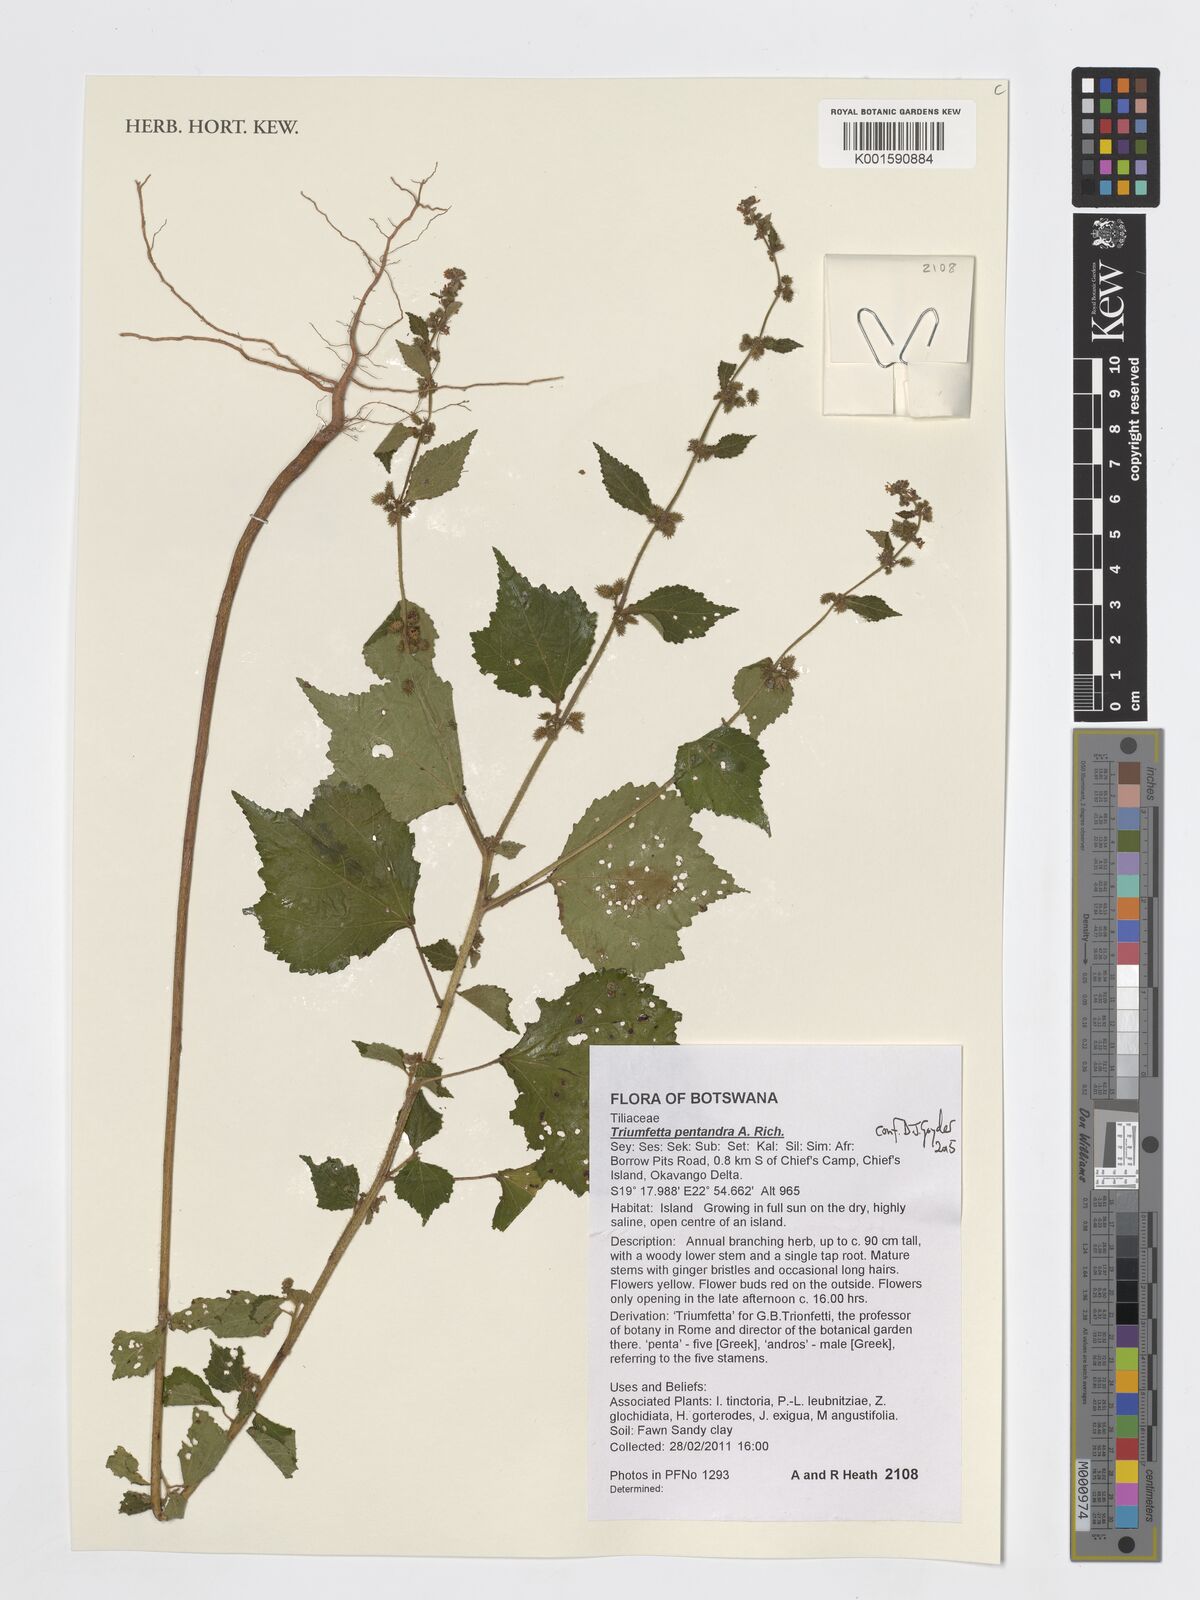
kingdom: Plantae
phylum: Tracheophyta
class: Magnoliopsida
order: Malvales
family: Malvaceae
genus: Triumfetta
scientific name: Triumfetta pentandra
